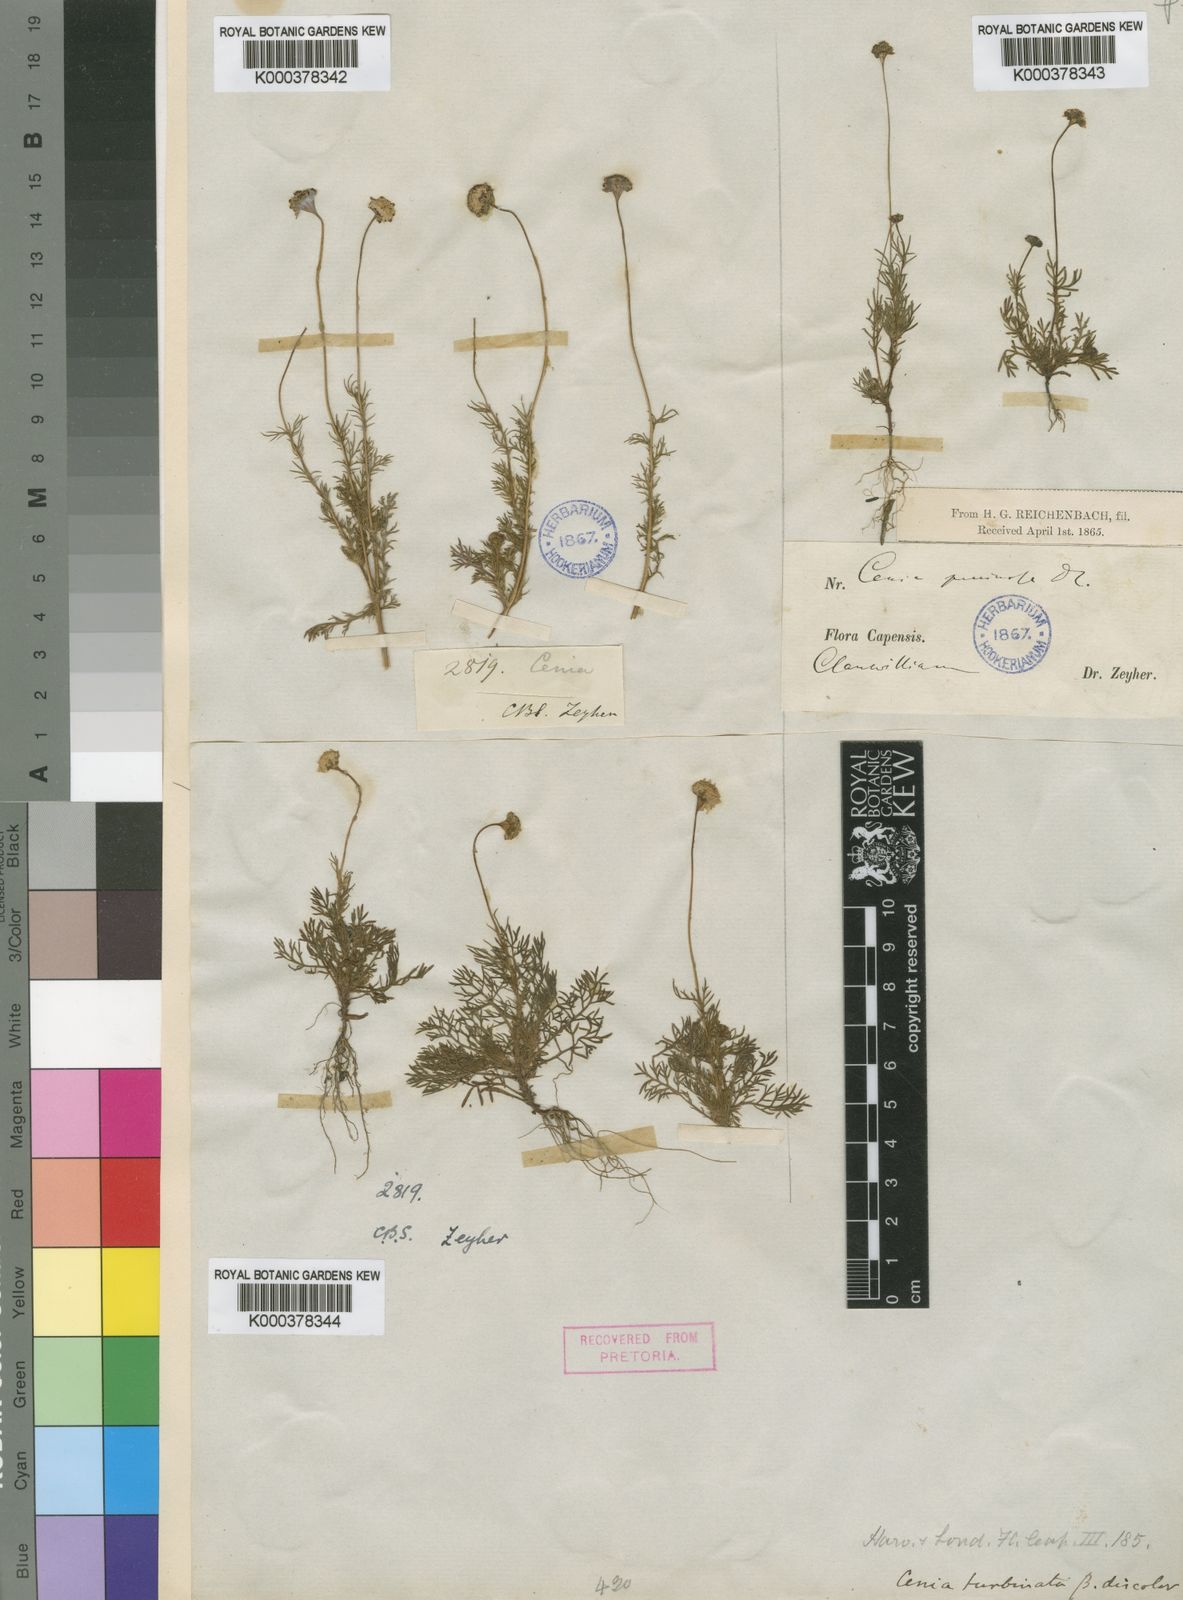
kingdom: Plantae
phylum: Tracheophyta
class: Magnoliopsida
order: Asterales
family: Asteraceae
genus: Cotula
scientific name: Cotula turbinata
